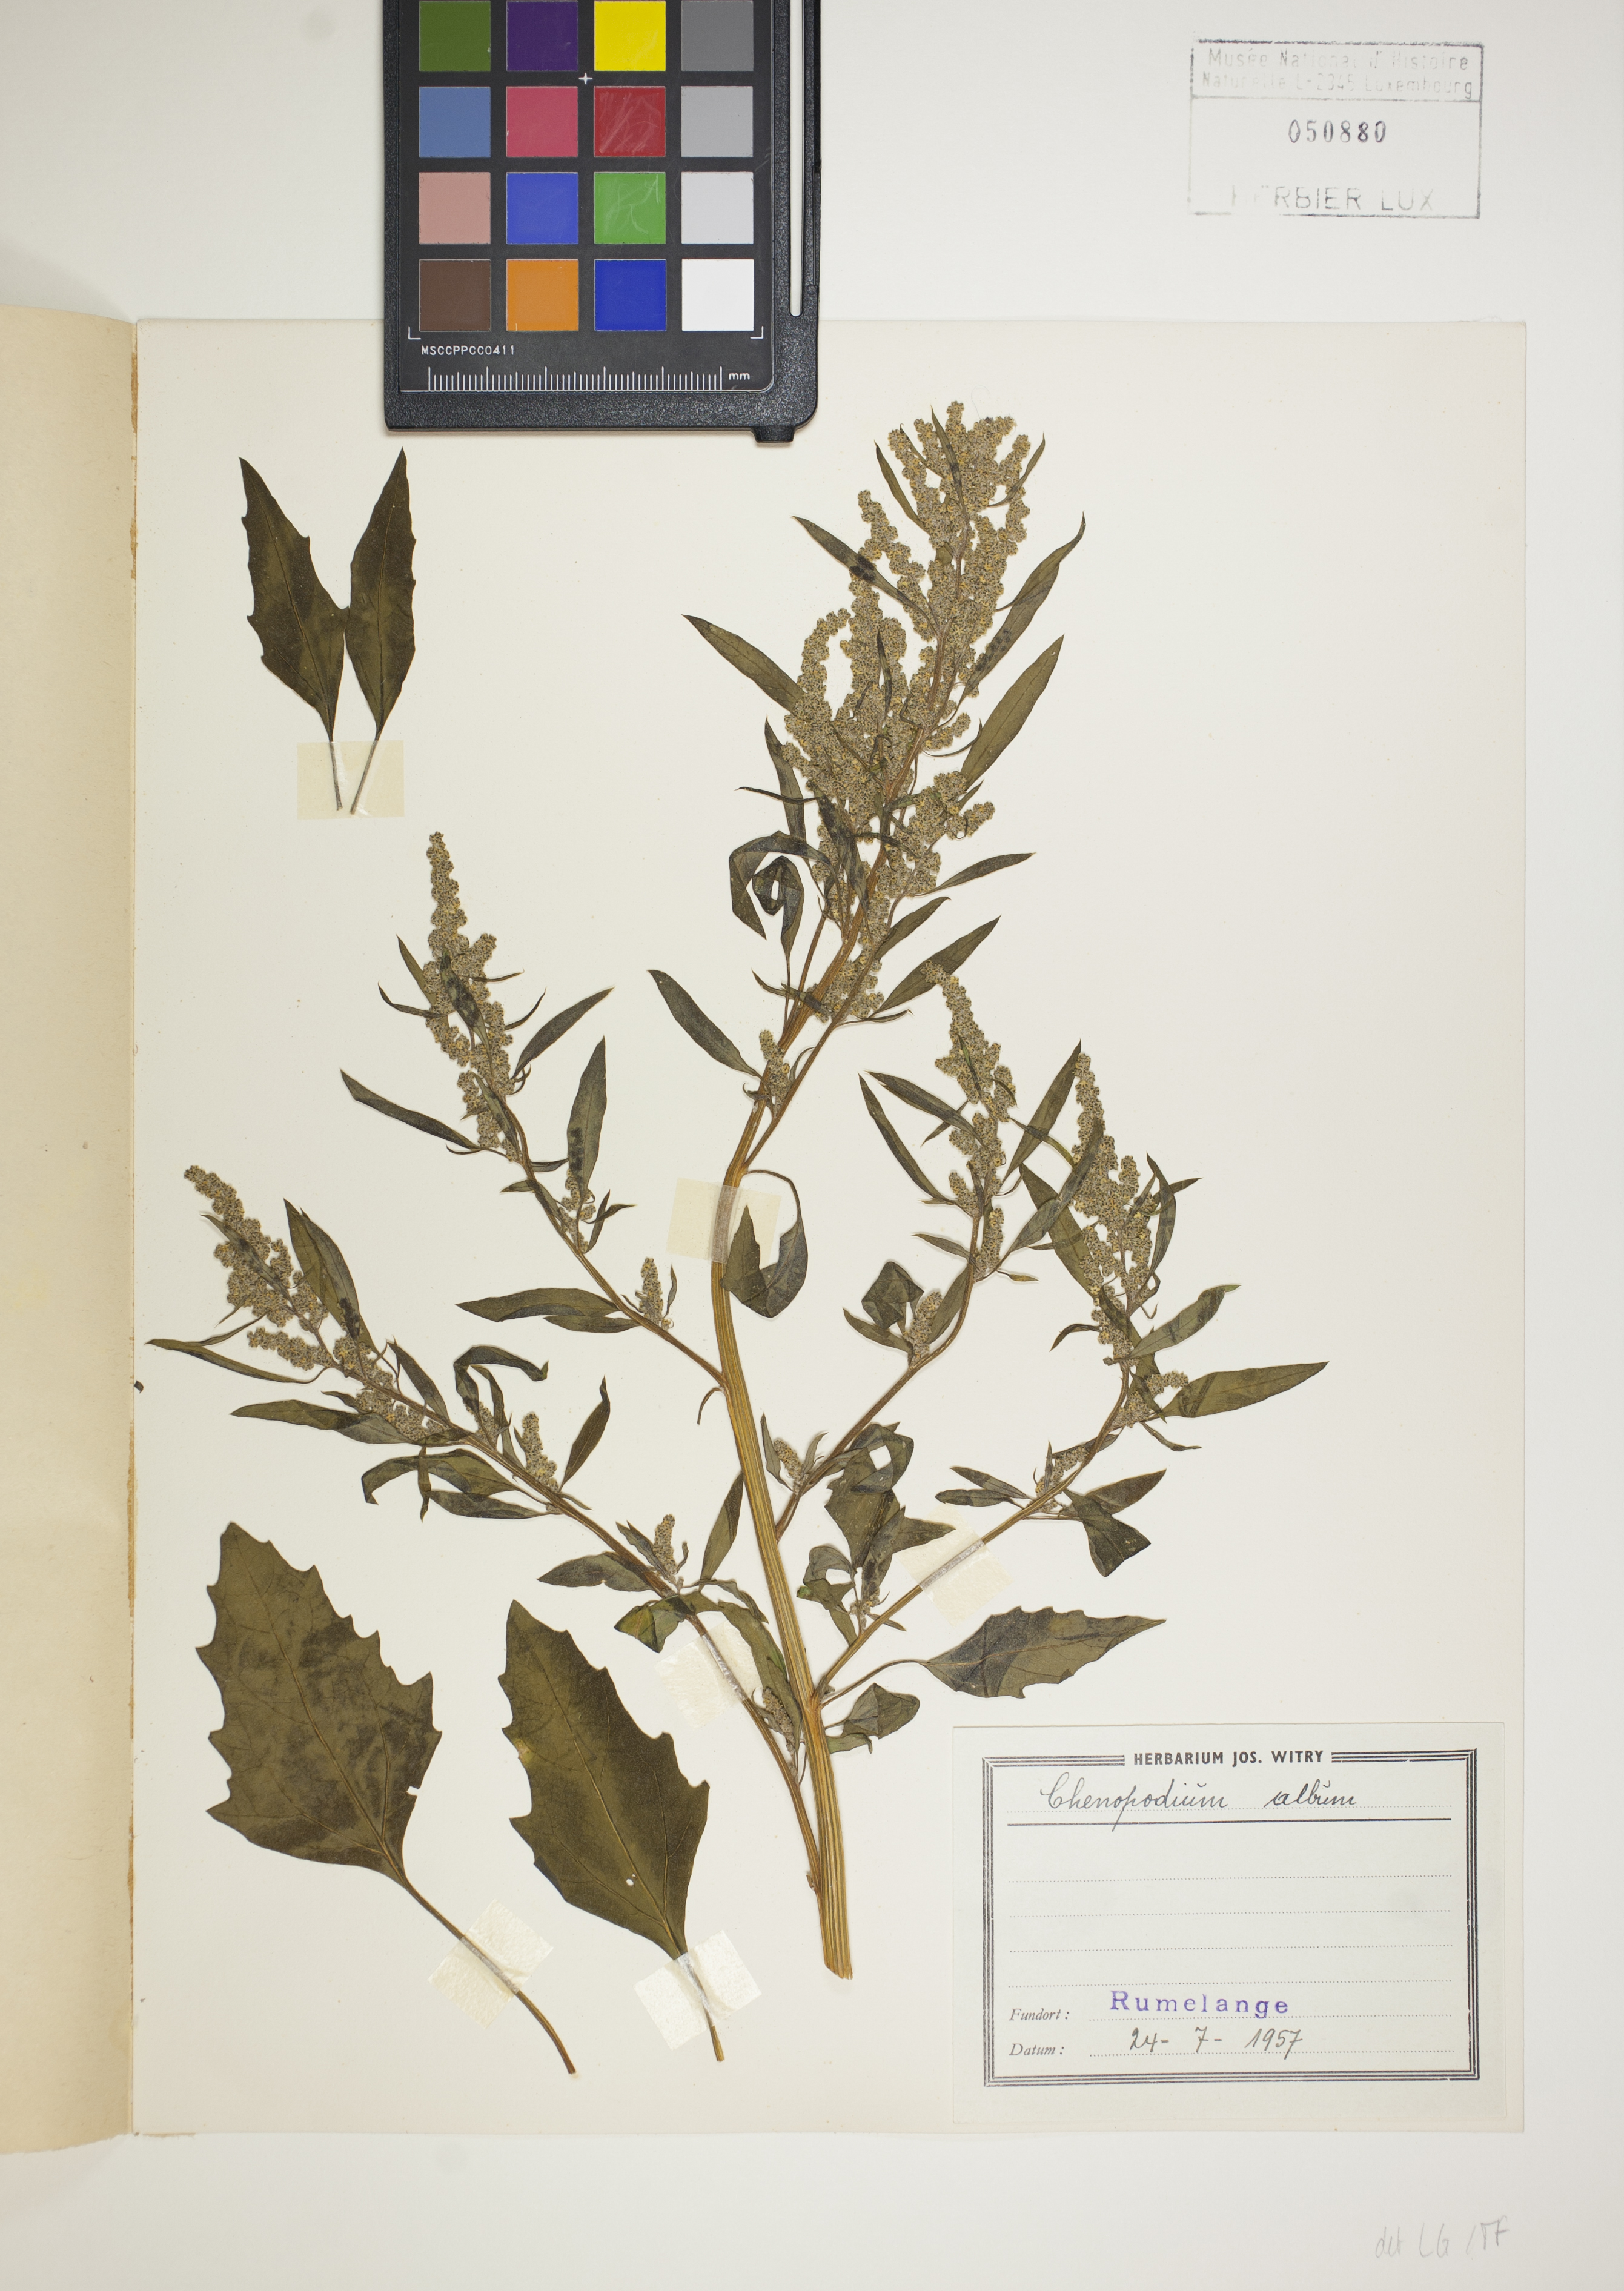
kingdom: Plantae
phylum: Tracheophyta
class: Magnoliopsida
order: Caryophyllales
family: Amaranthaceae
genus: Chenopodium
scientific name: Chenopodium album
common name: Fat-hen
